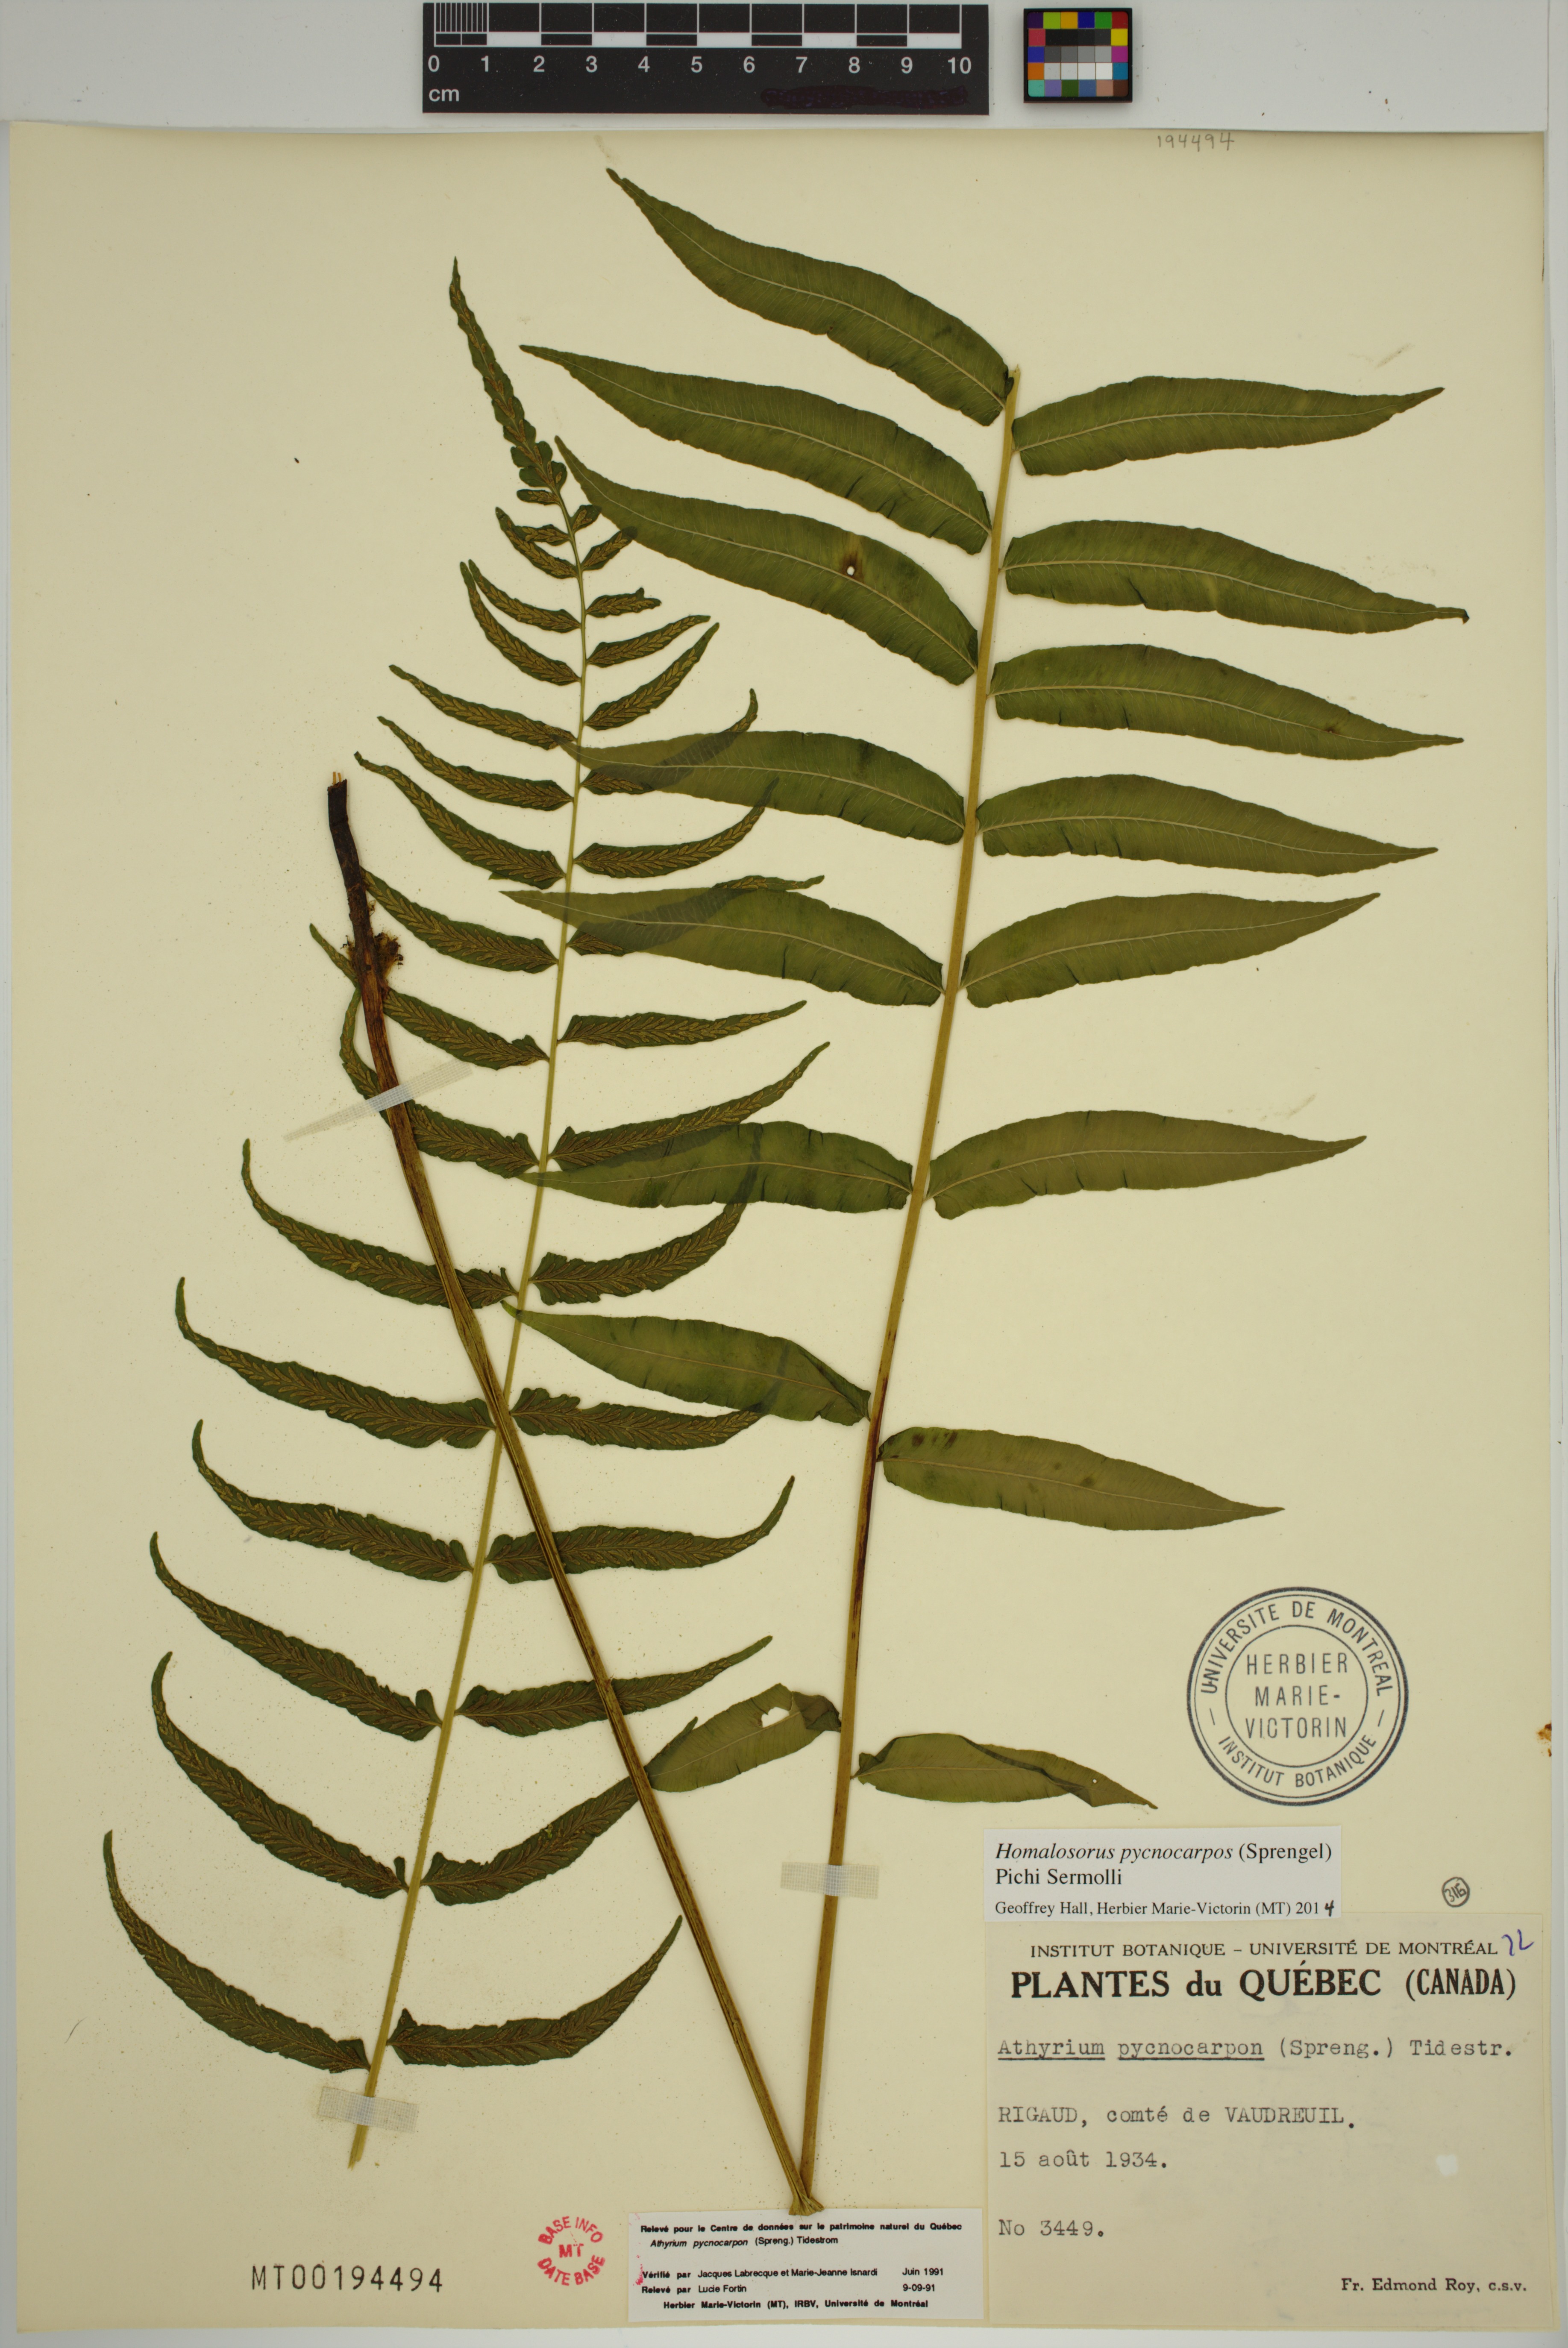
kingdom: Plantae
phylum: Tracheophyta
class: Polypodiopsida
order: Polypodiales
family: Diplaziopsidaceae
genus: Homalosorus
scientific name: Homalosorus pycnocarpos
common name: Glade fern
